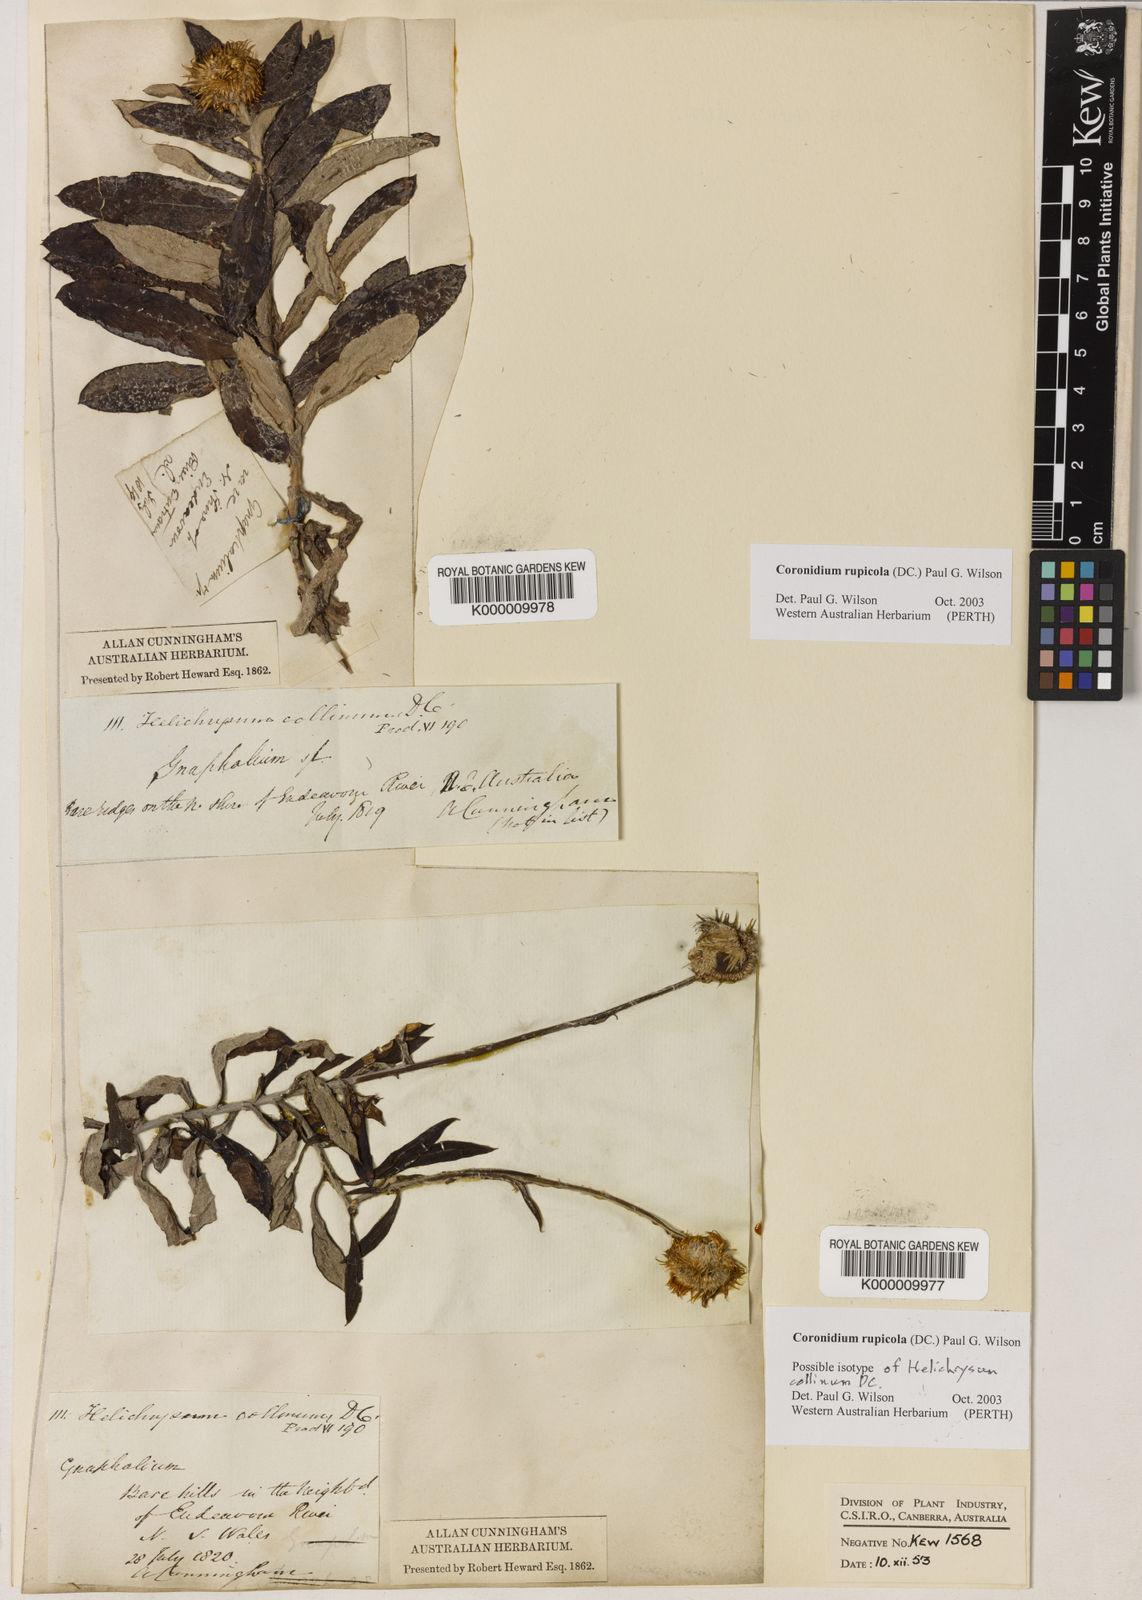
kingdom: Plantae
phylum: Tracheophyta
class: Magnoliopsida
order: Asterales
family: Asteraceae
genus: Coronidium
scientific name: Coronidium rupicola
